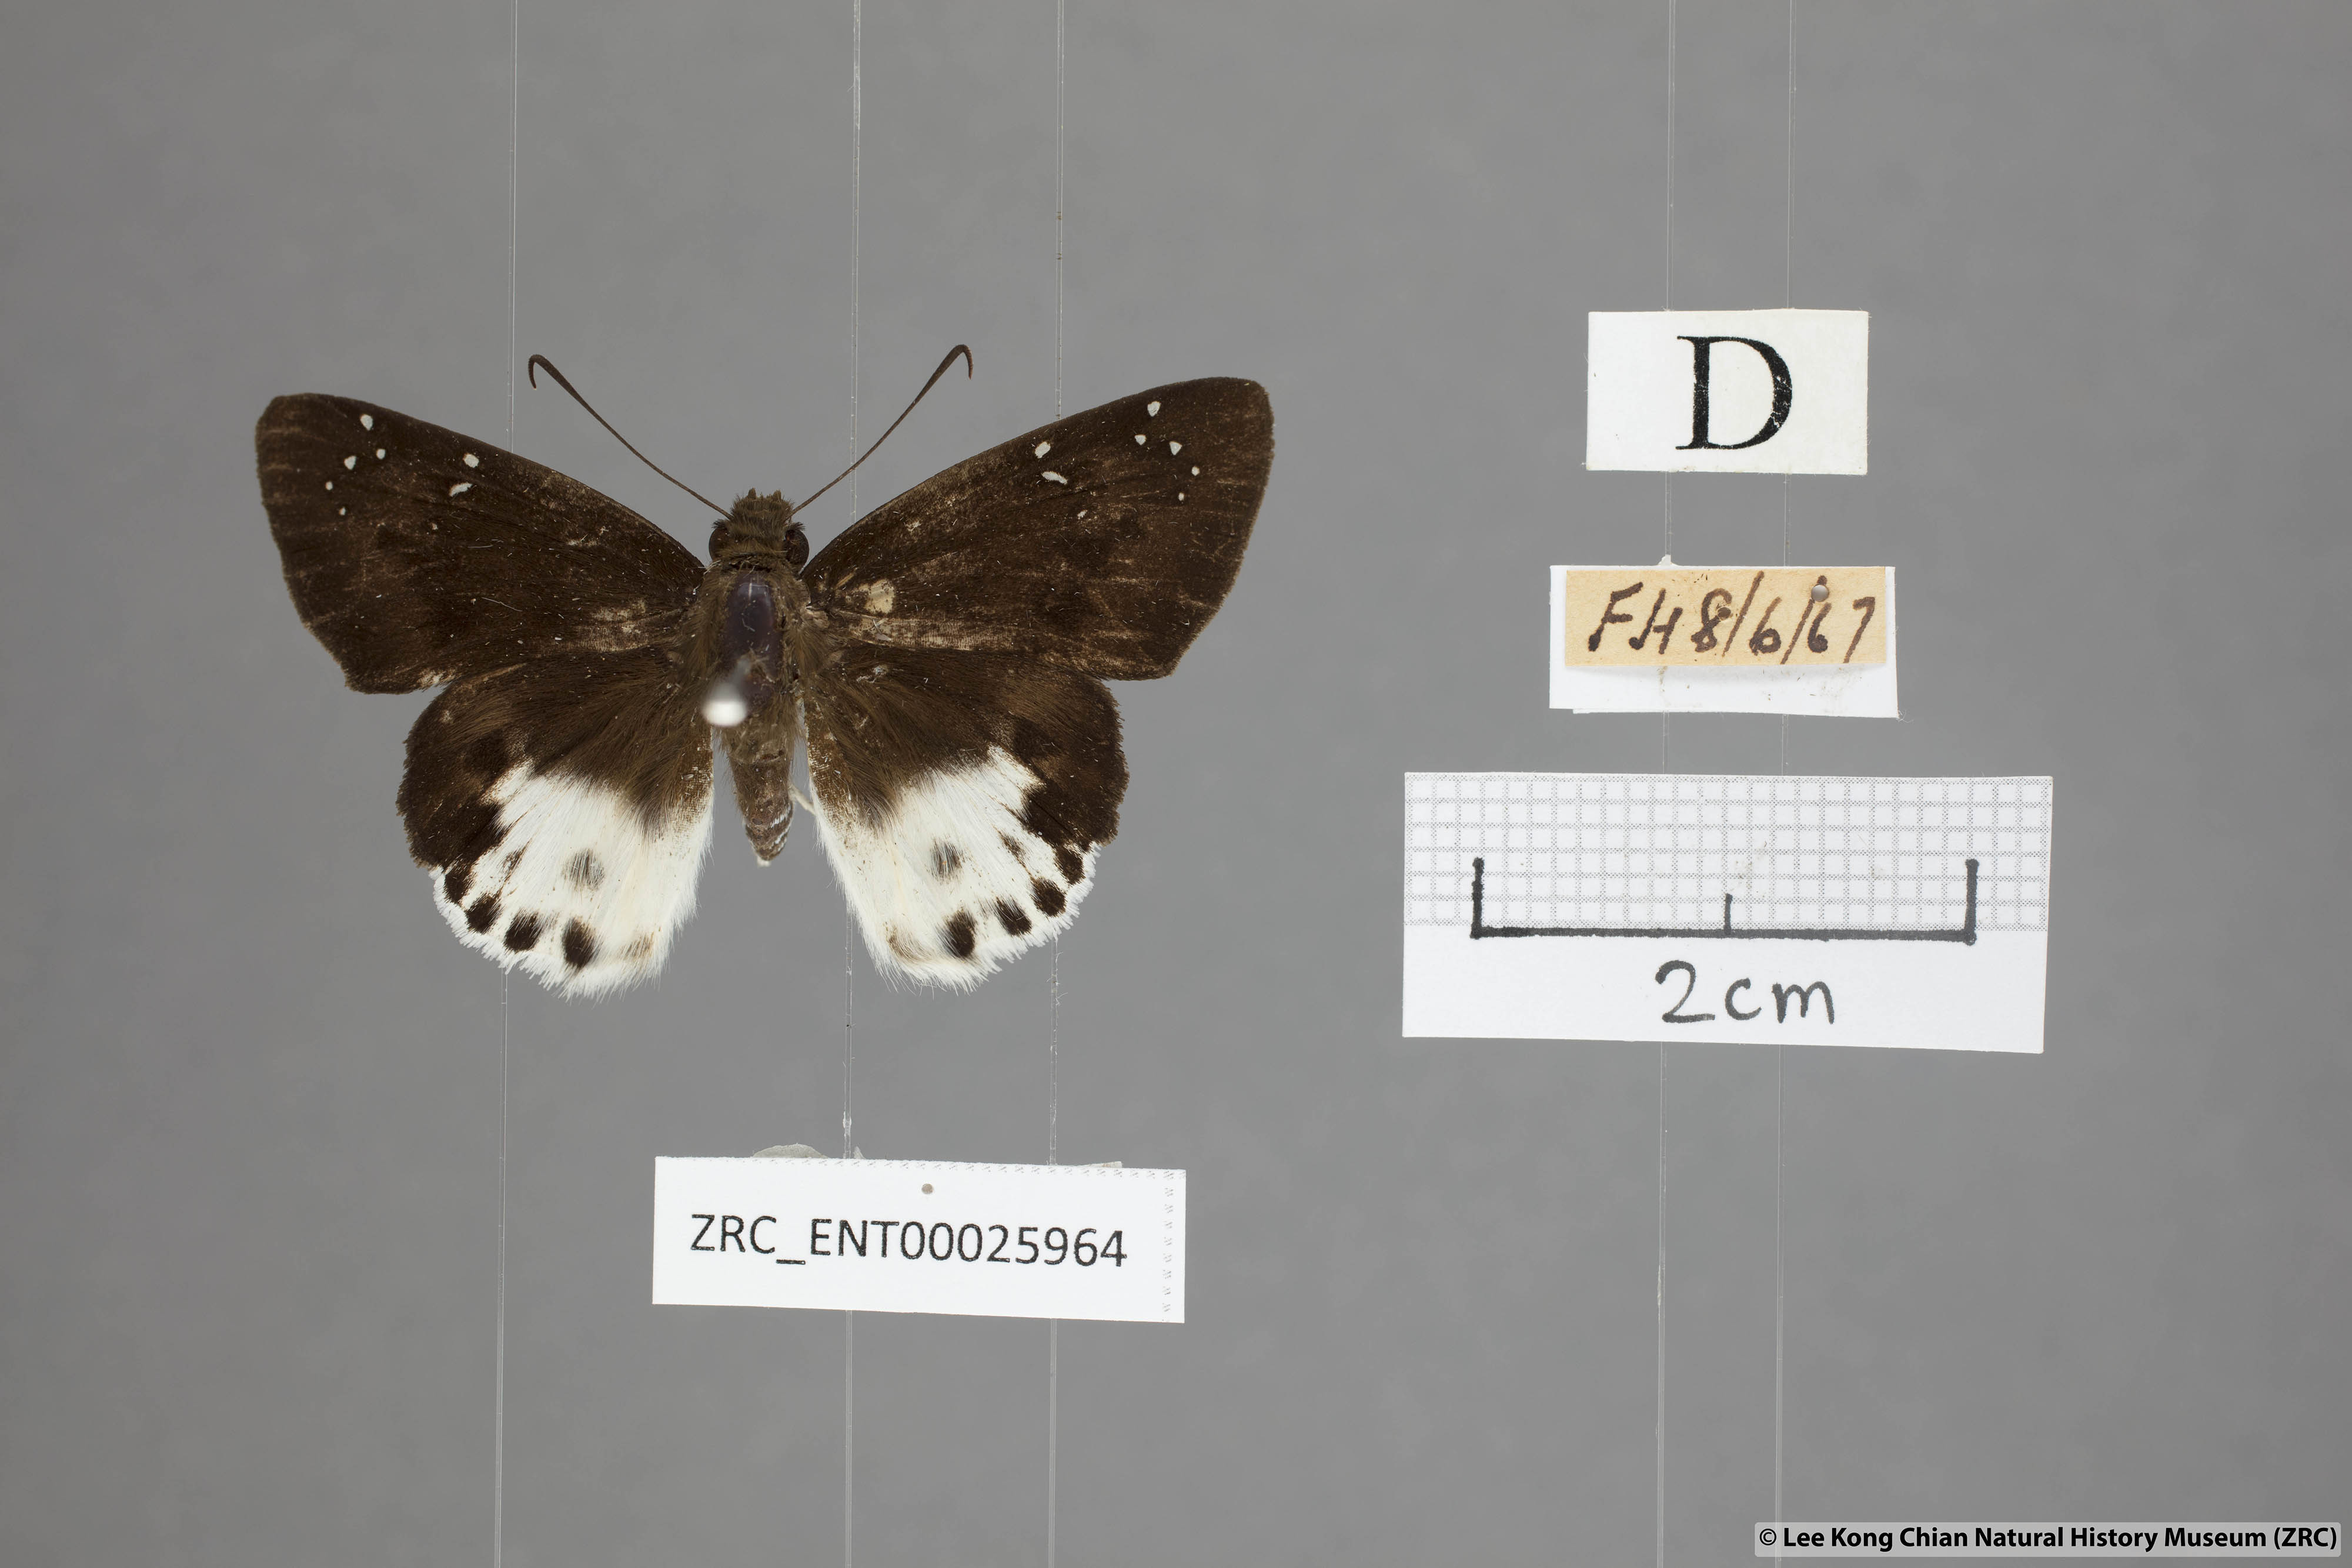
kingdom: Animalia
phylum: Arthropoda
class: Insecta
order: Lepidoptera
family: Hesperiidae
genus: Tagiades
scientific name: Tagiades cohaerens
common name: White-striped snow flat
